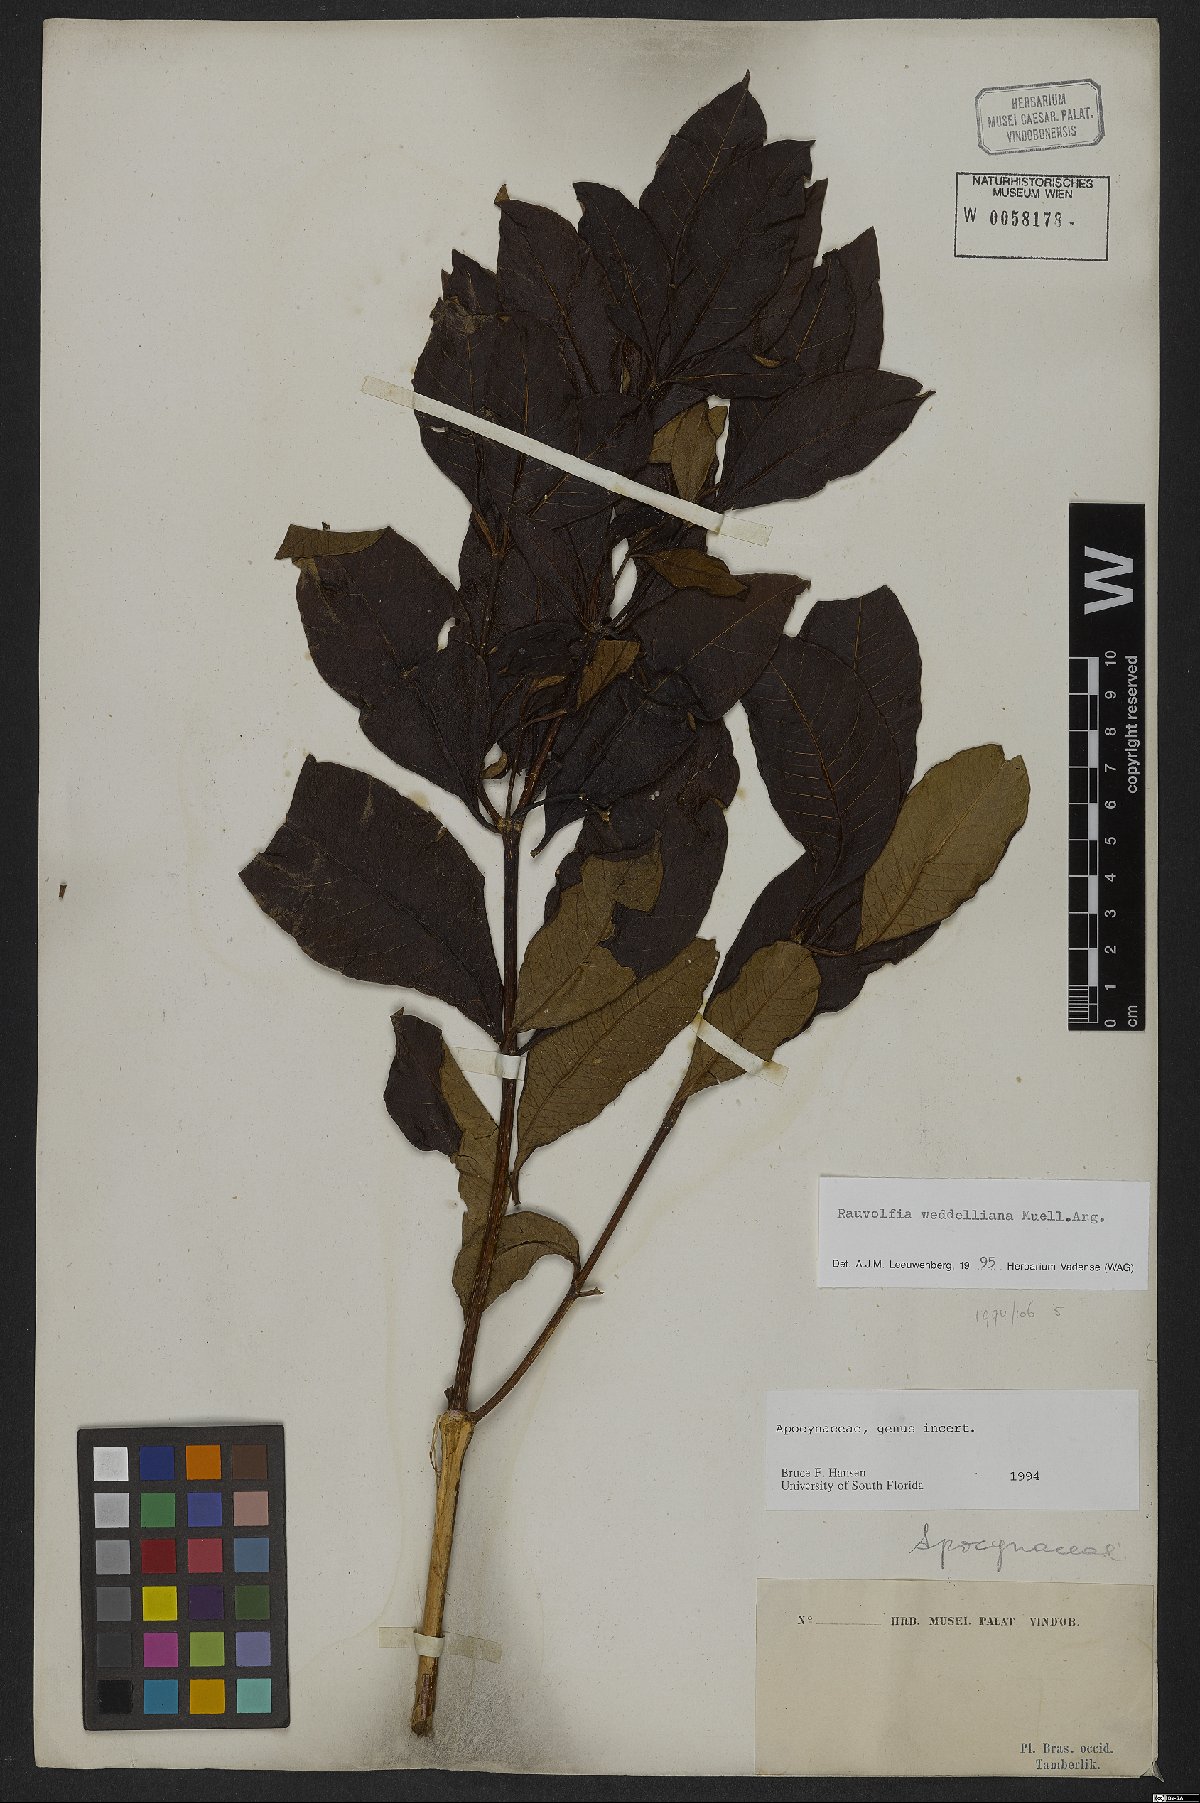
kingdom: Plantae
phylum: Tracheophyta
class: Magnoliopsida
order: Gentianales
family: Apocynaceae
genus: Rauvolfia
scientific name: Rauvolfia weddeliana
